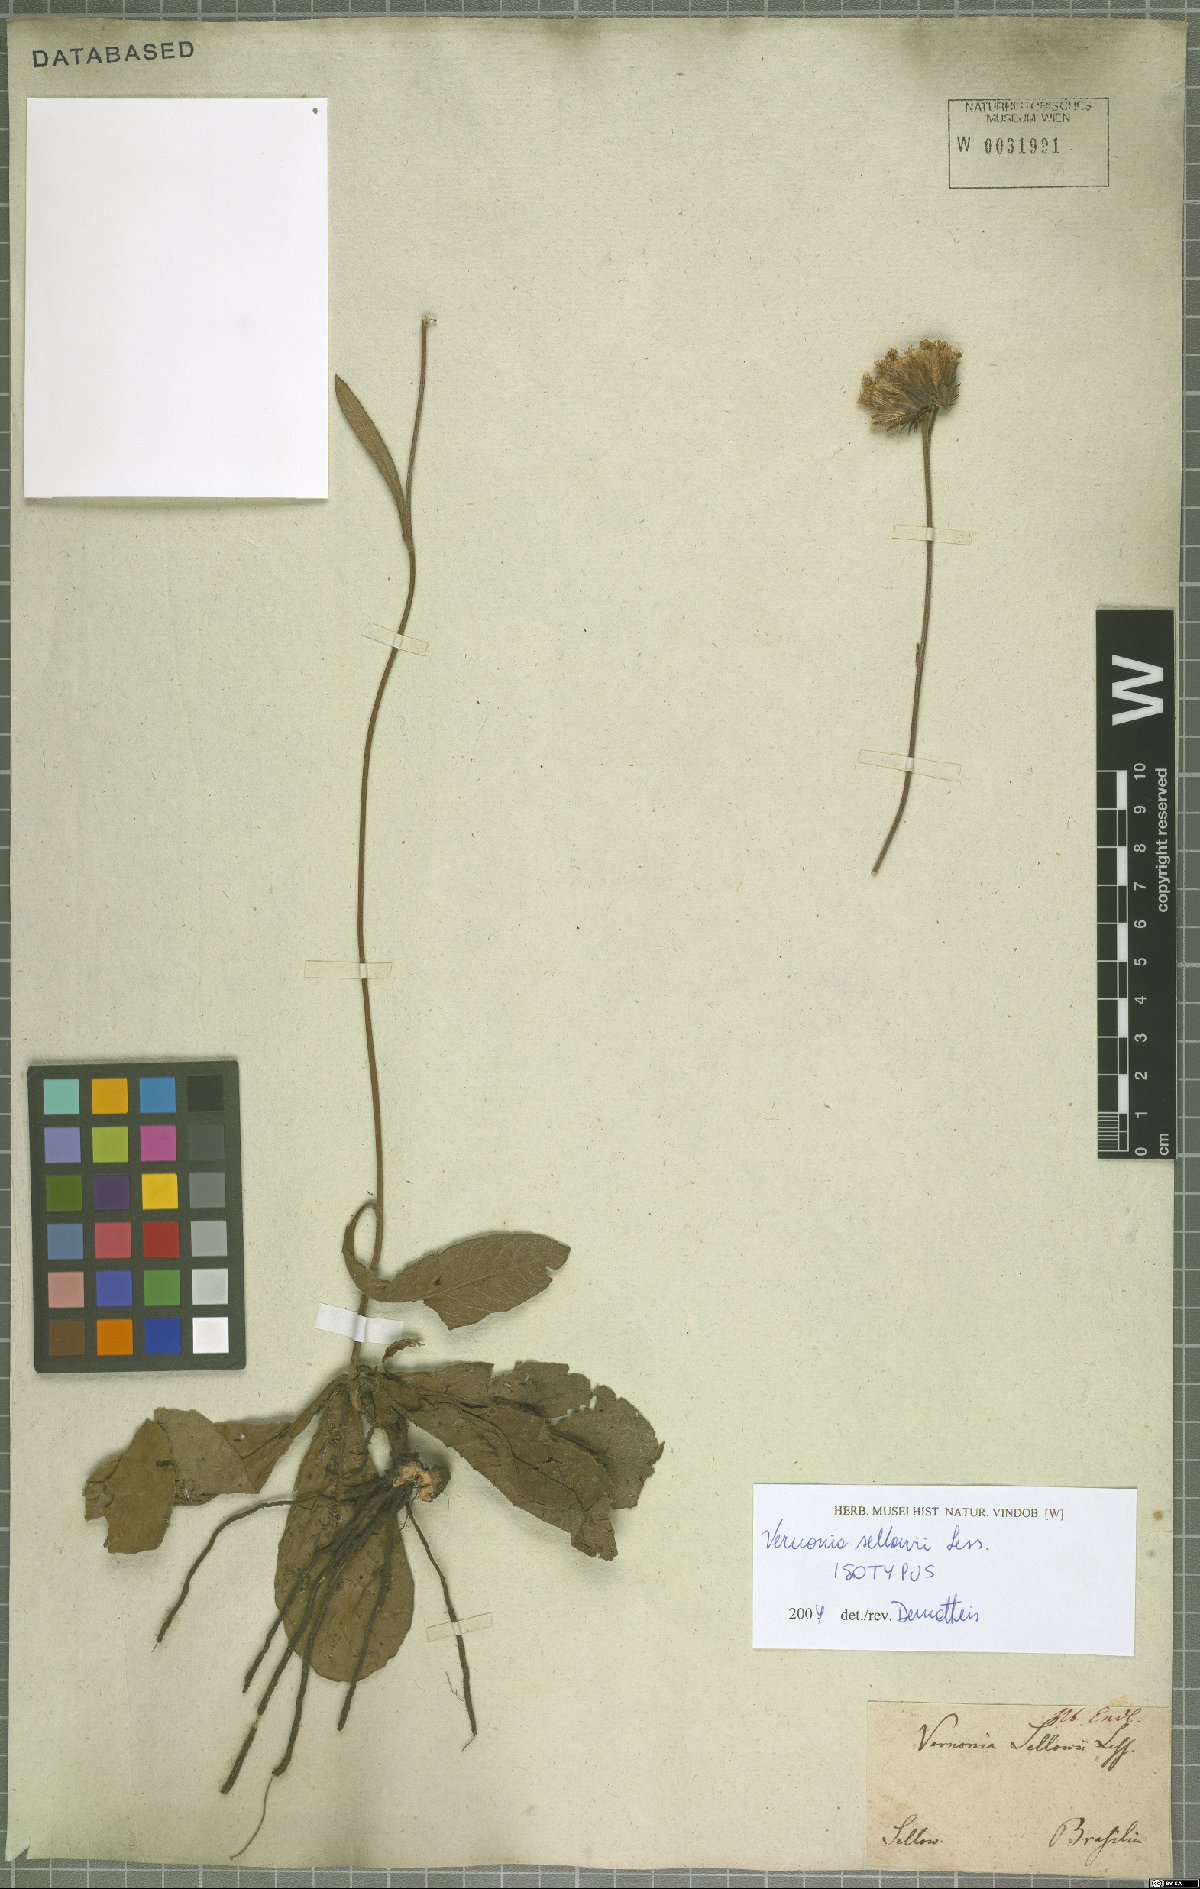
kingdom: Plantae
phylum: Tracheophyta
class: Magnoliopsida
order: Asterales
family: Asteraceae
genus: Lessingianthus
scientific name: Lessingianthus sellowii
